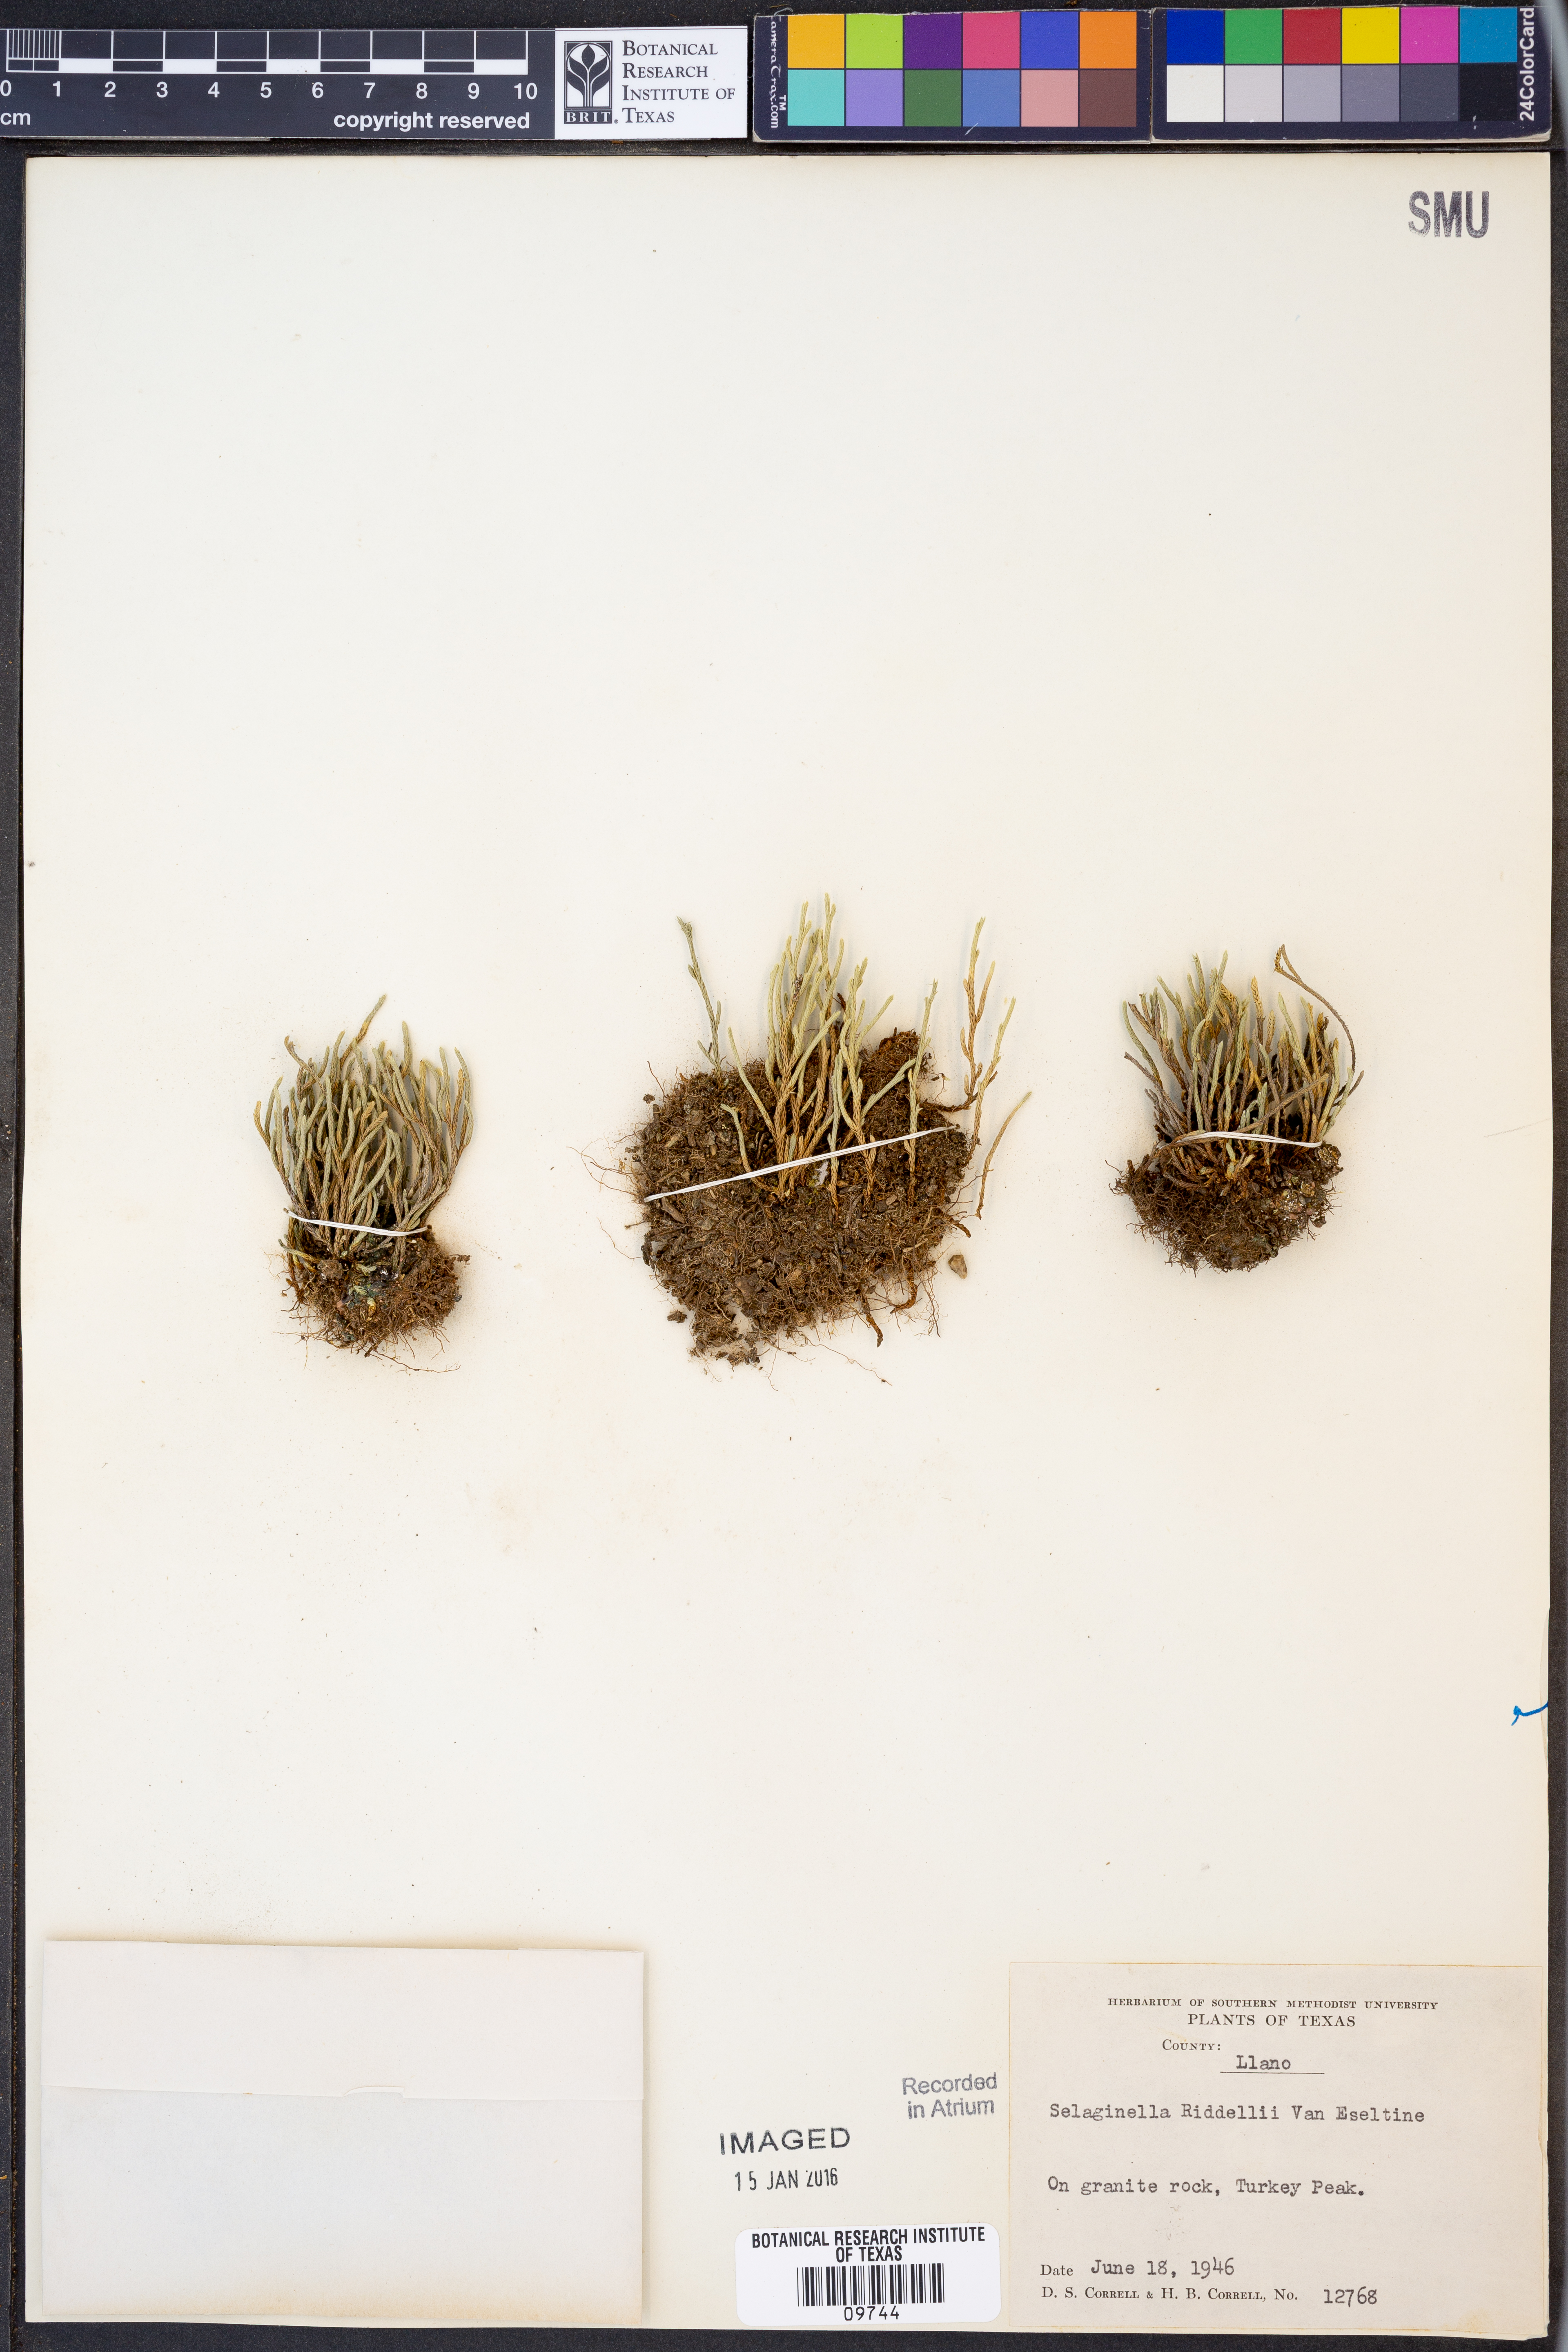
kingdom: Plantae
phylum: Tracheophyta
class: Lycopodiopsida
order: Selaginellales
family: Selaginellaceae
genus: Selaginella
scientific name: Selaginella corallina
